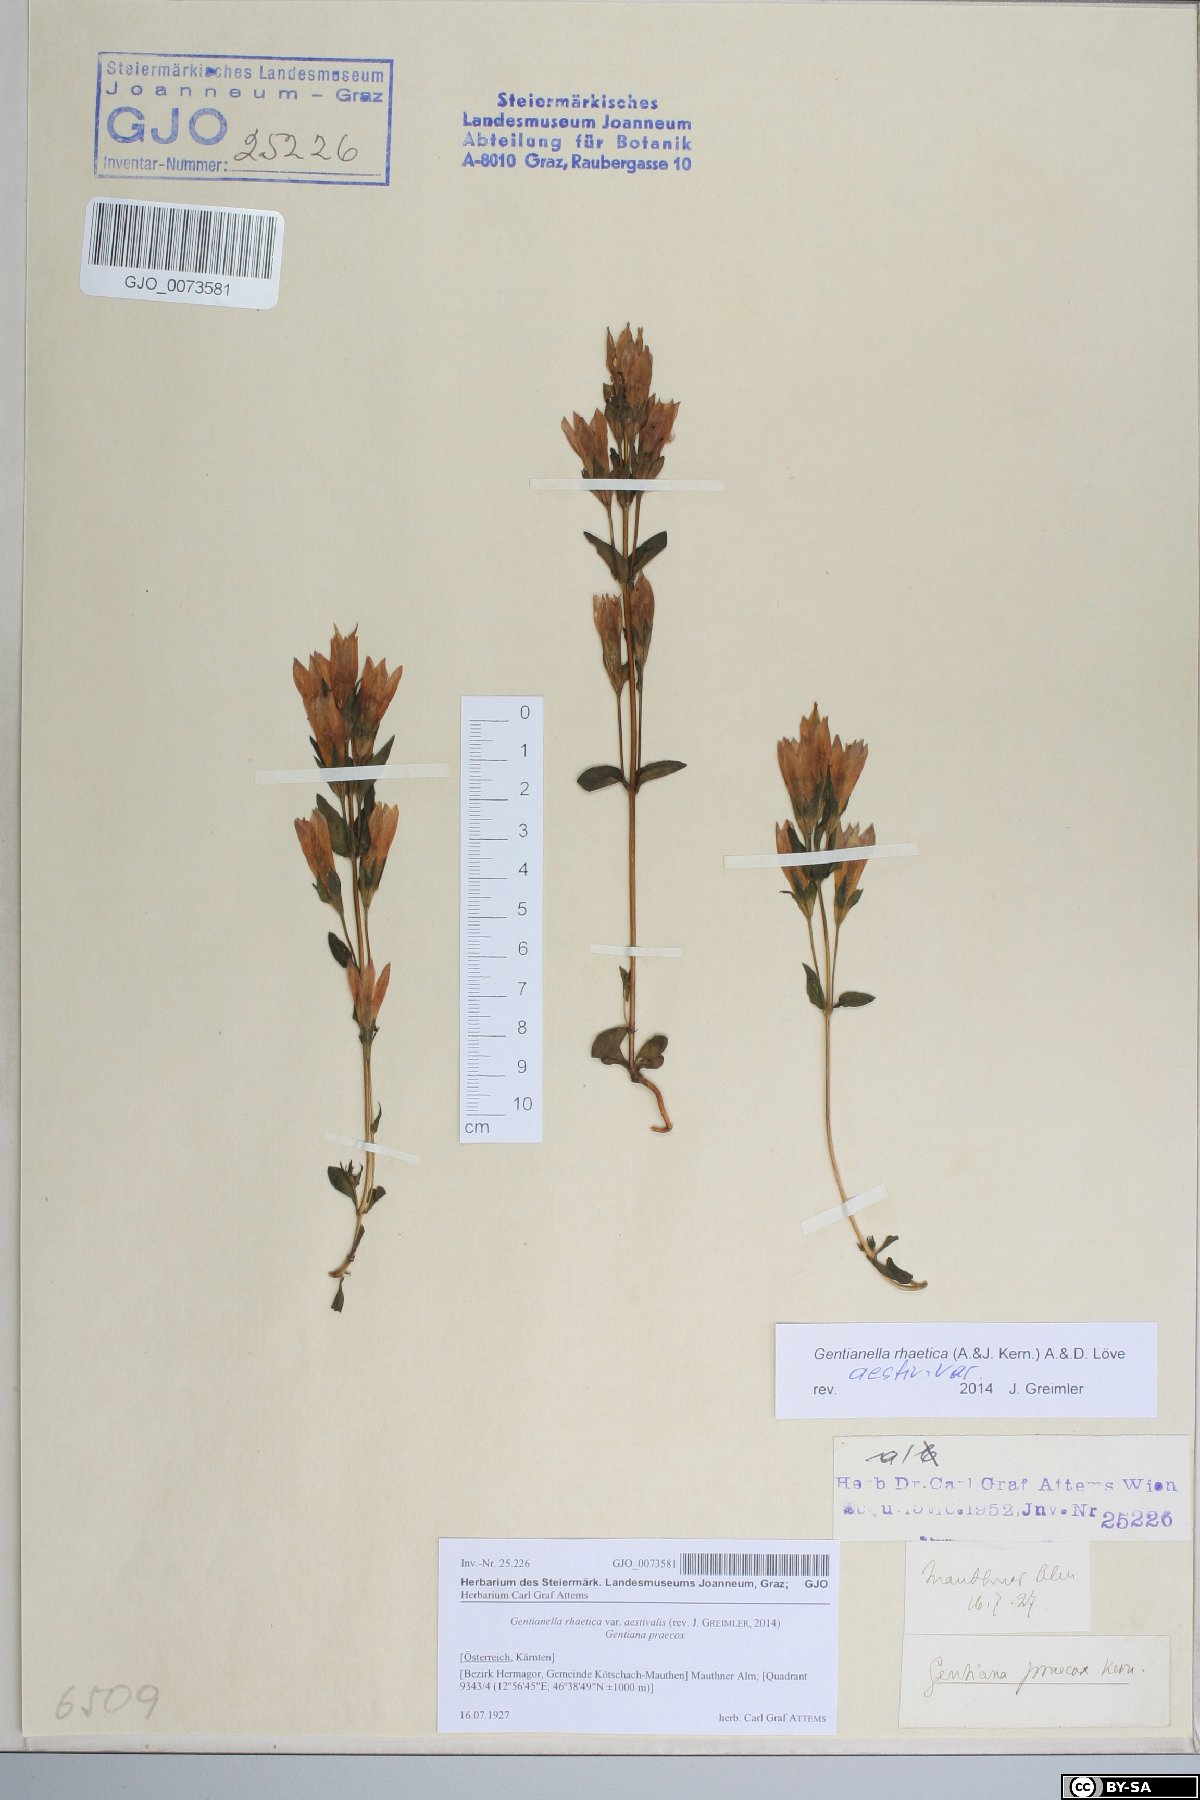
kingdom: Plantae
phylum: Tracheophyta
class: Magnoliopsida
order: Gentianales
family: Gentianaceae
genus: Gentianella
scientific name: Gentianella rhaetica
